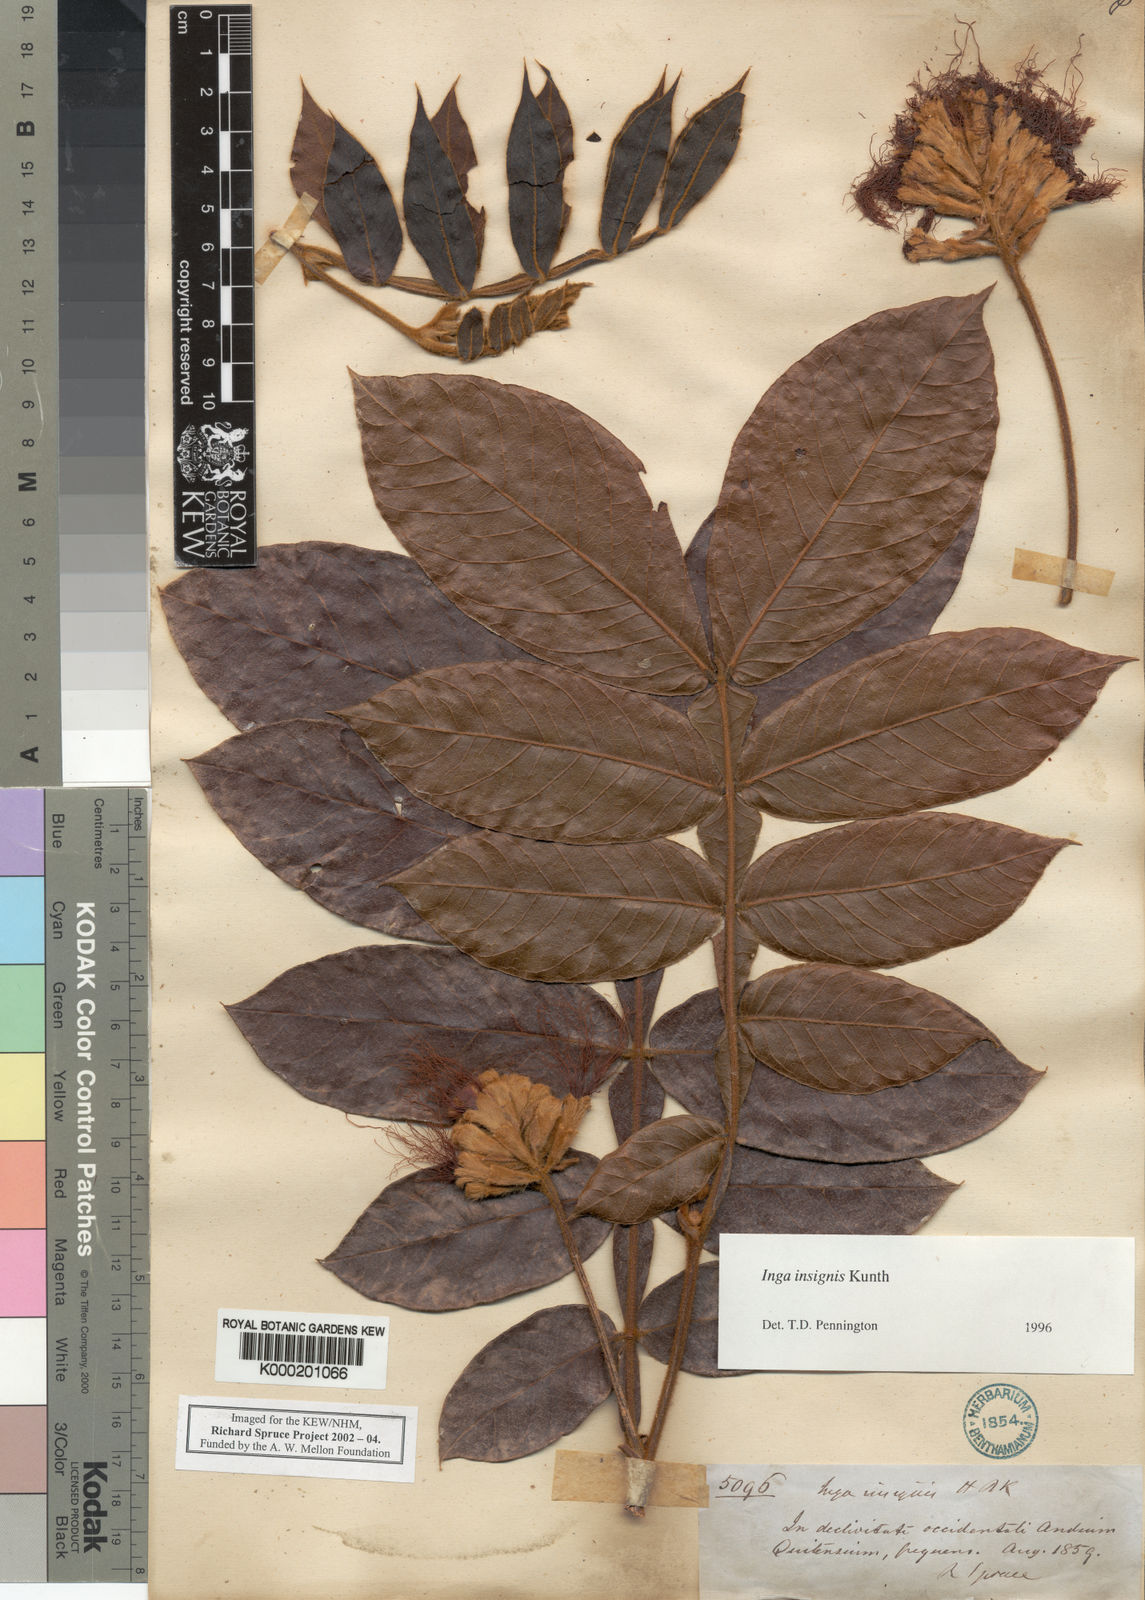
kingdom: Plantae
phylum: Tracheophyta
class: Magnoliopsida
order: Fabales
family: Fabaceae
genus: Inga
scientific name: Inga insignis
